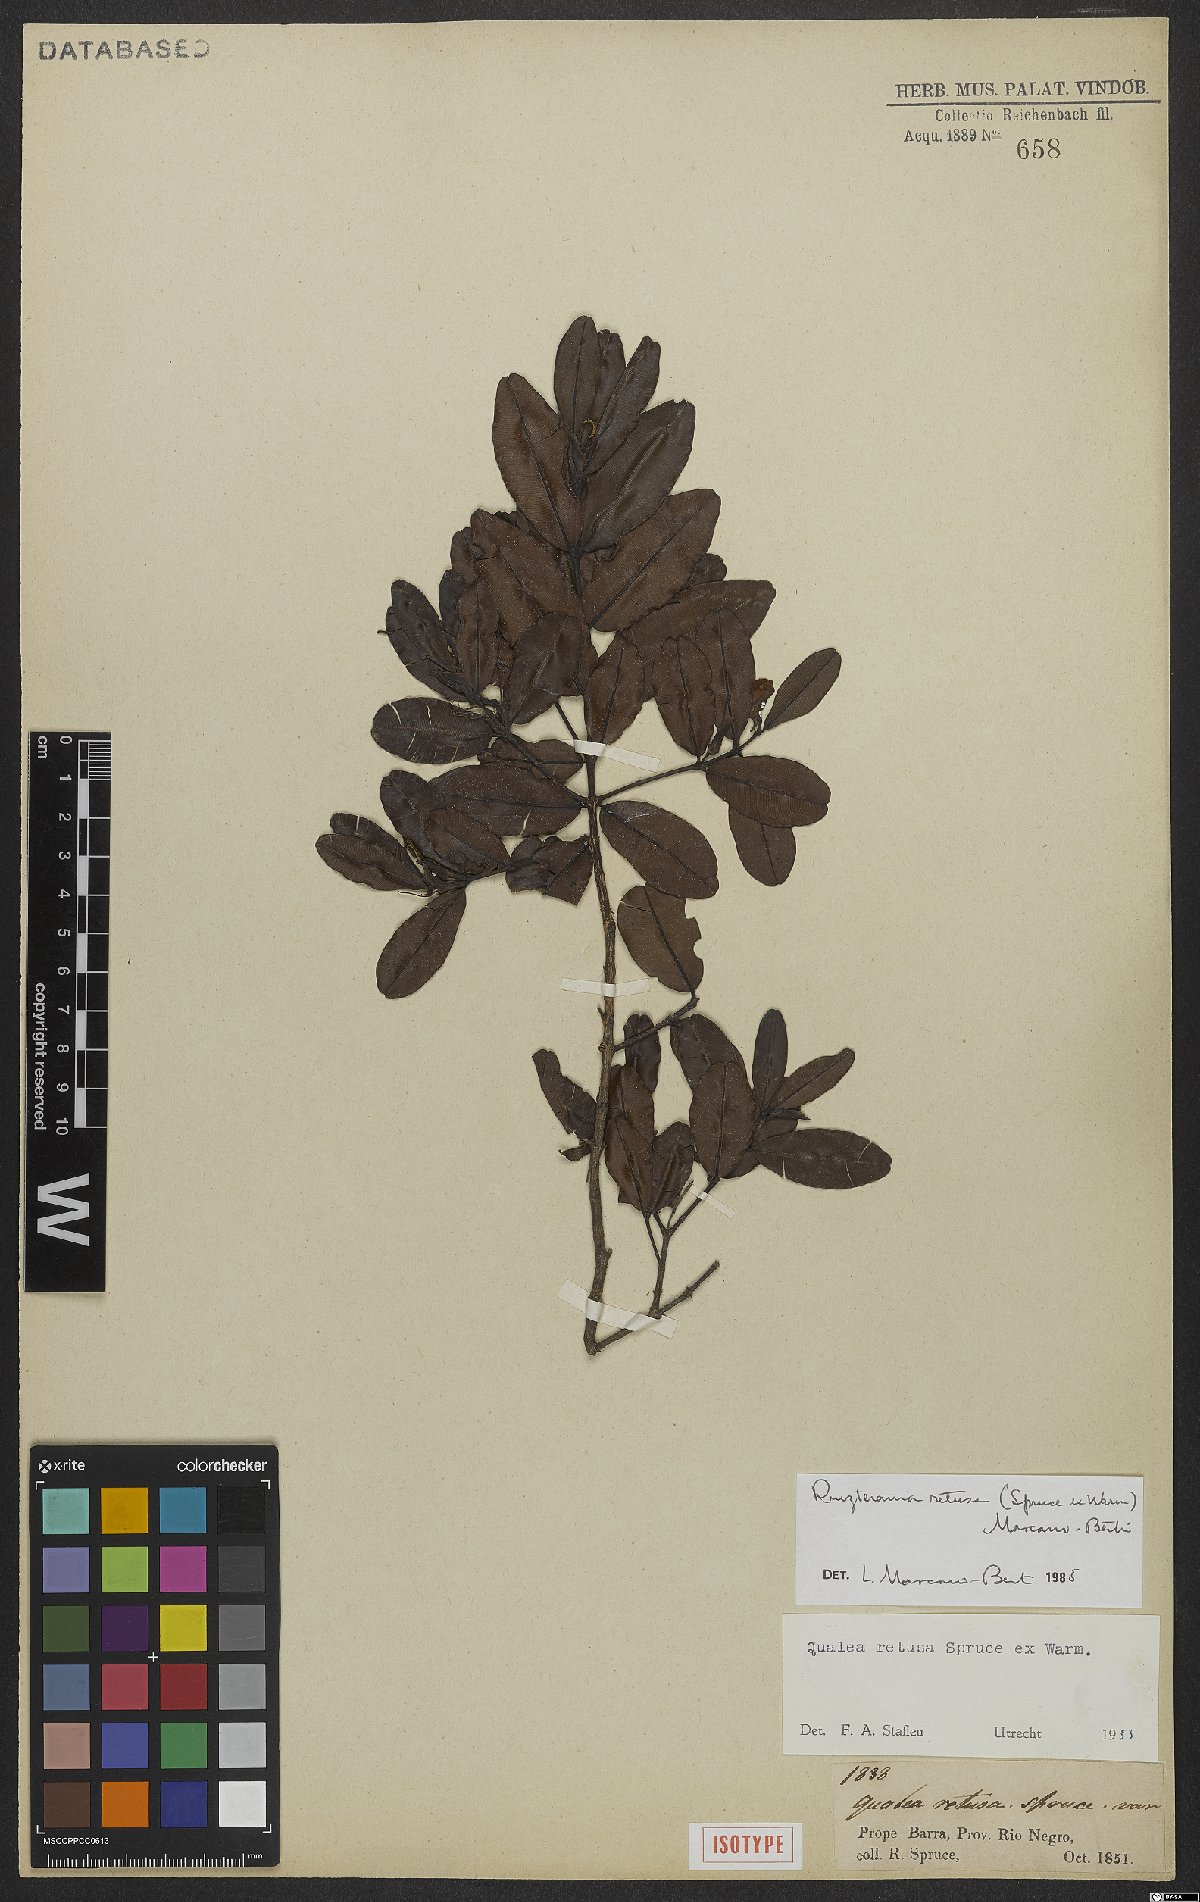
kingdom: Plantae
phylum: Tracheophyta
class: Magnoliopsida
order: Myrtales
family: Vochysiaceae
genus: Ruizterania
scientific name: Ruizterania retusa
